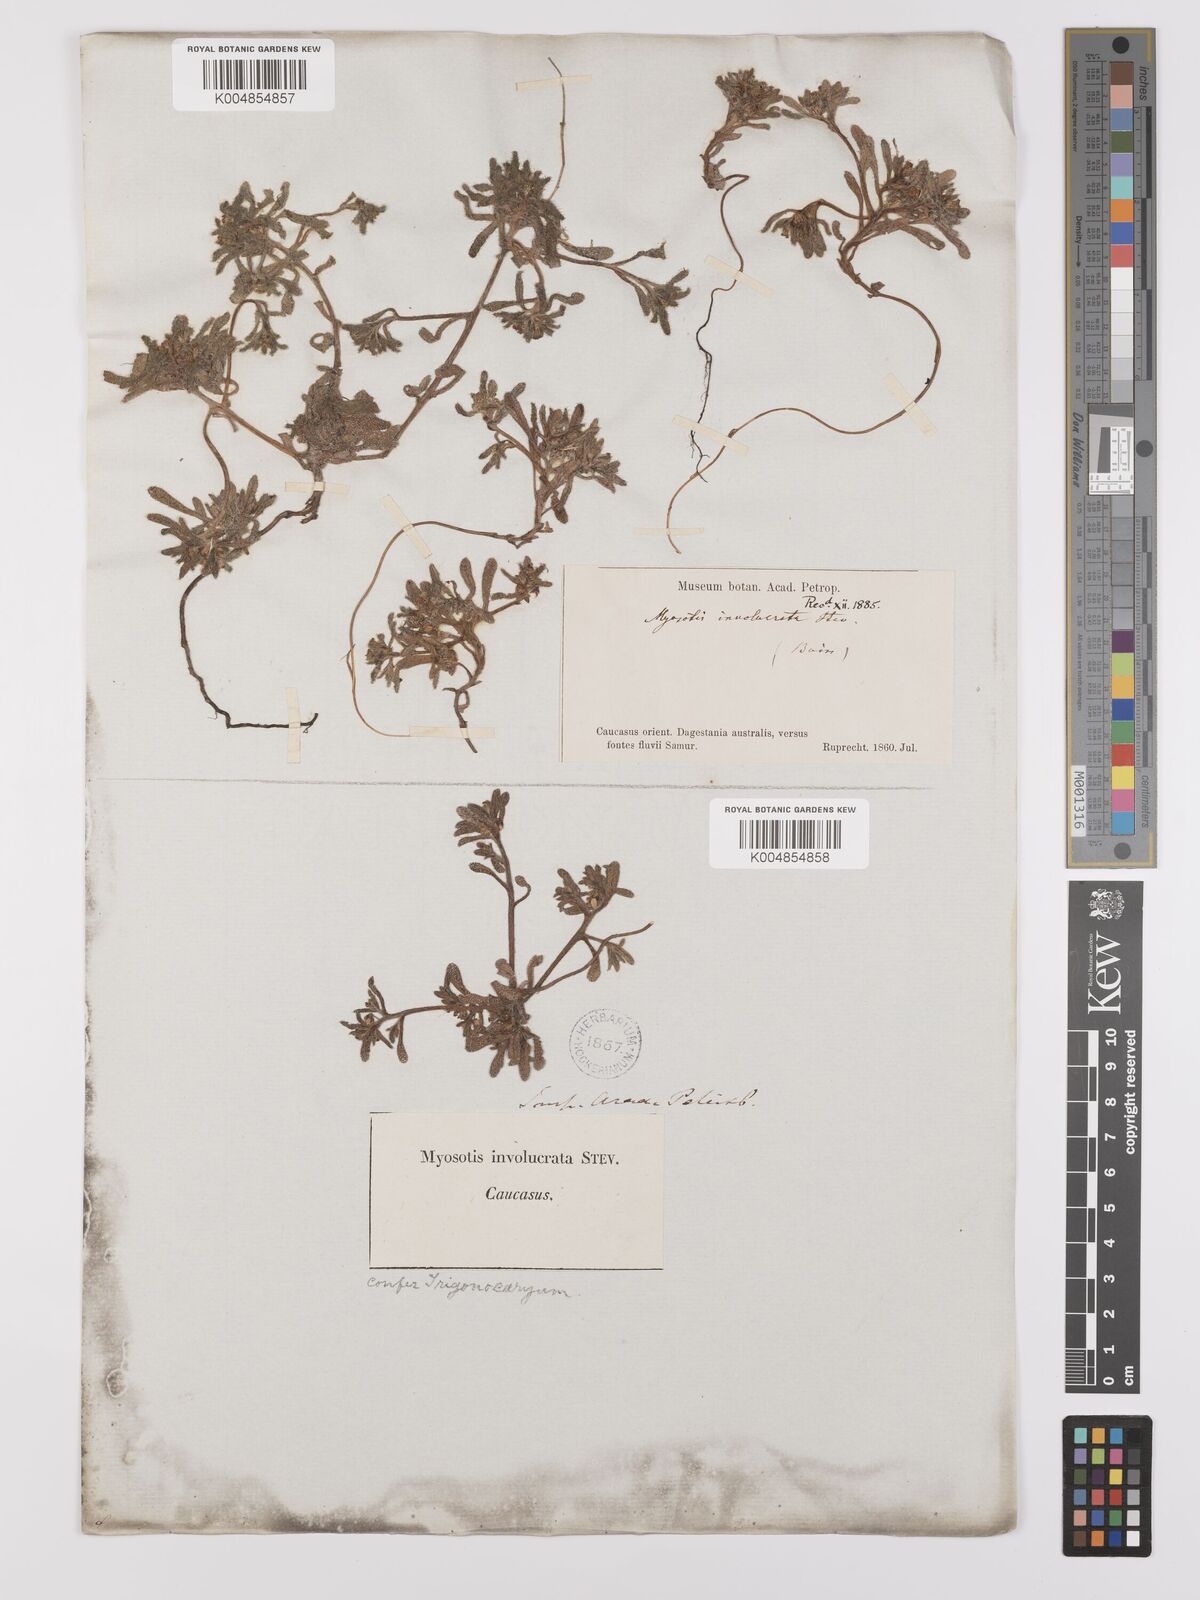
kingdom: Plantae
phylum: Tracheophyta
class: Magnoliopsida
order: Boraginales
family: Boraginaceae
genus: Myosotis
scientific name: Myosotis involucrata
